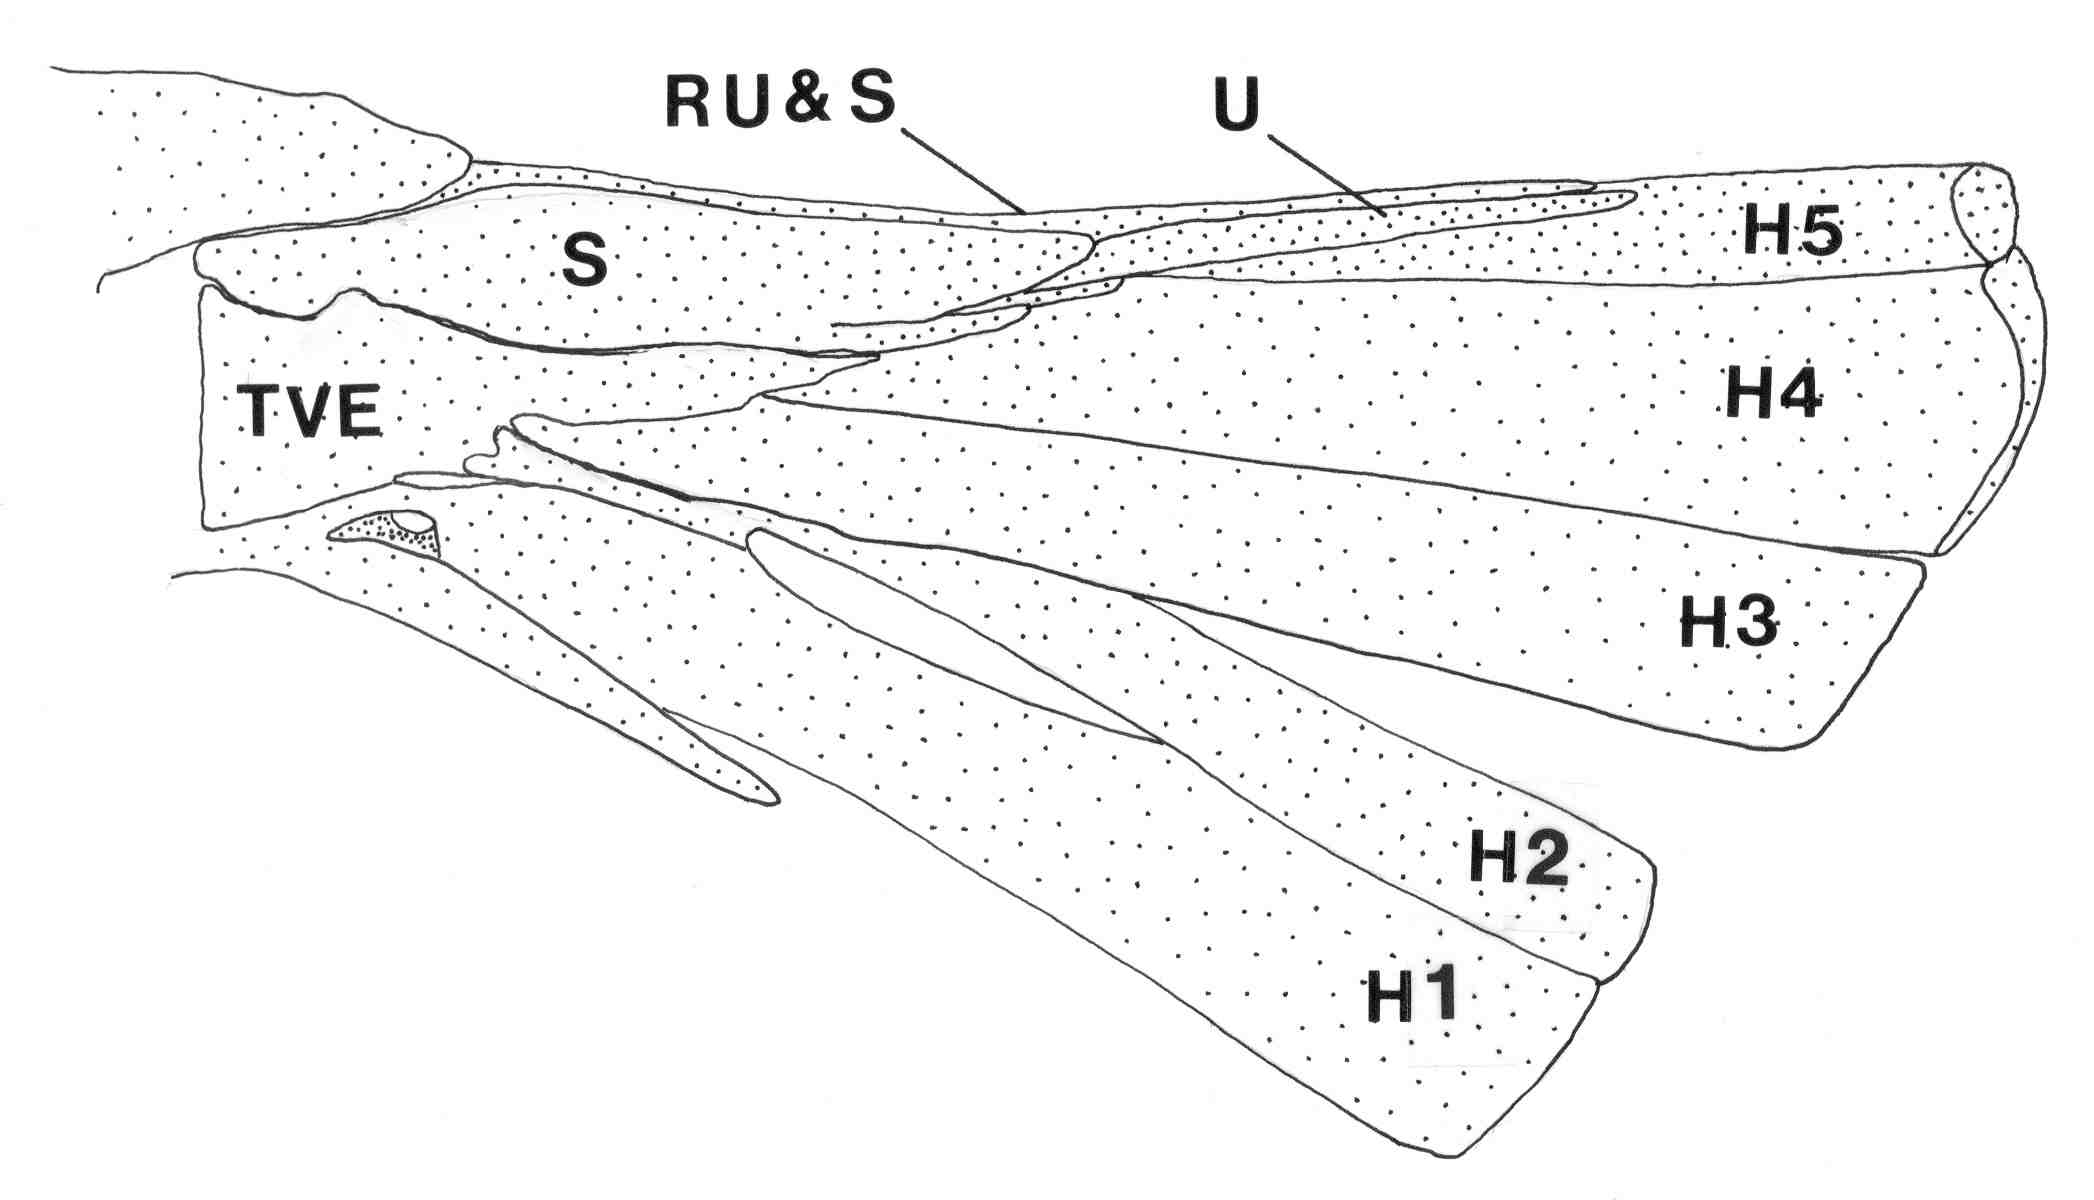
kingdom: Animalia
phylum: Chordata
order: Perciformes
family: Serranidae
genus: Epinephelus
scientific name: Epinephelus macrospilos
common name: Snubnose grouper
